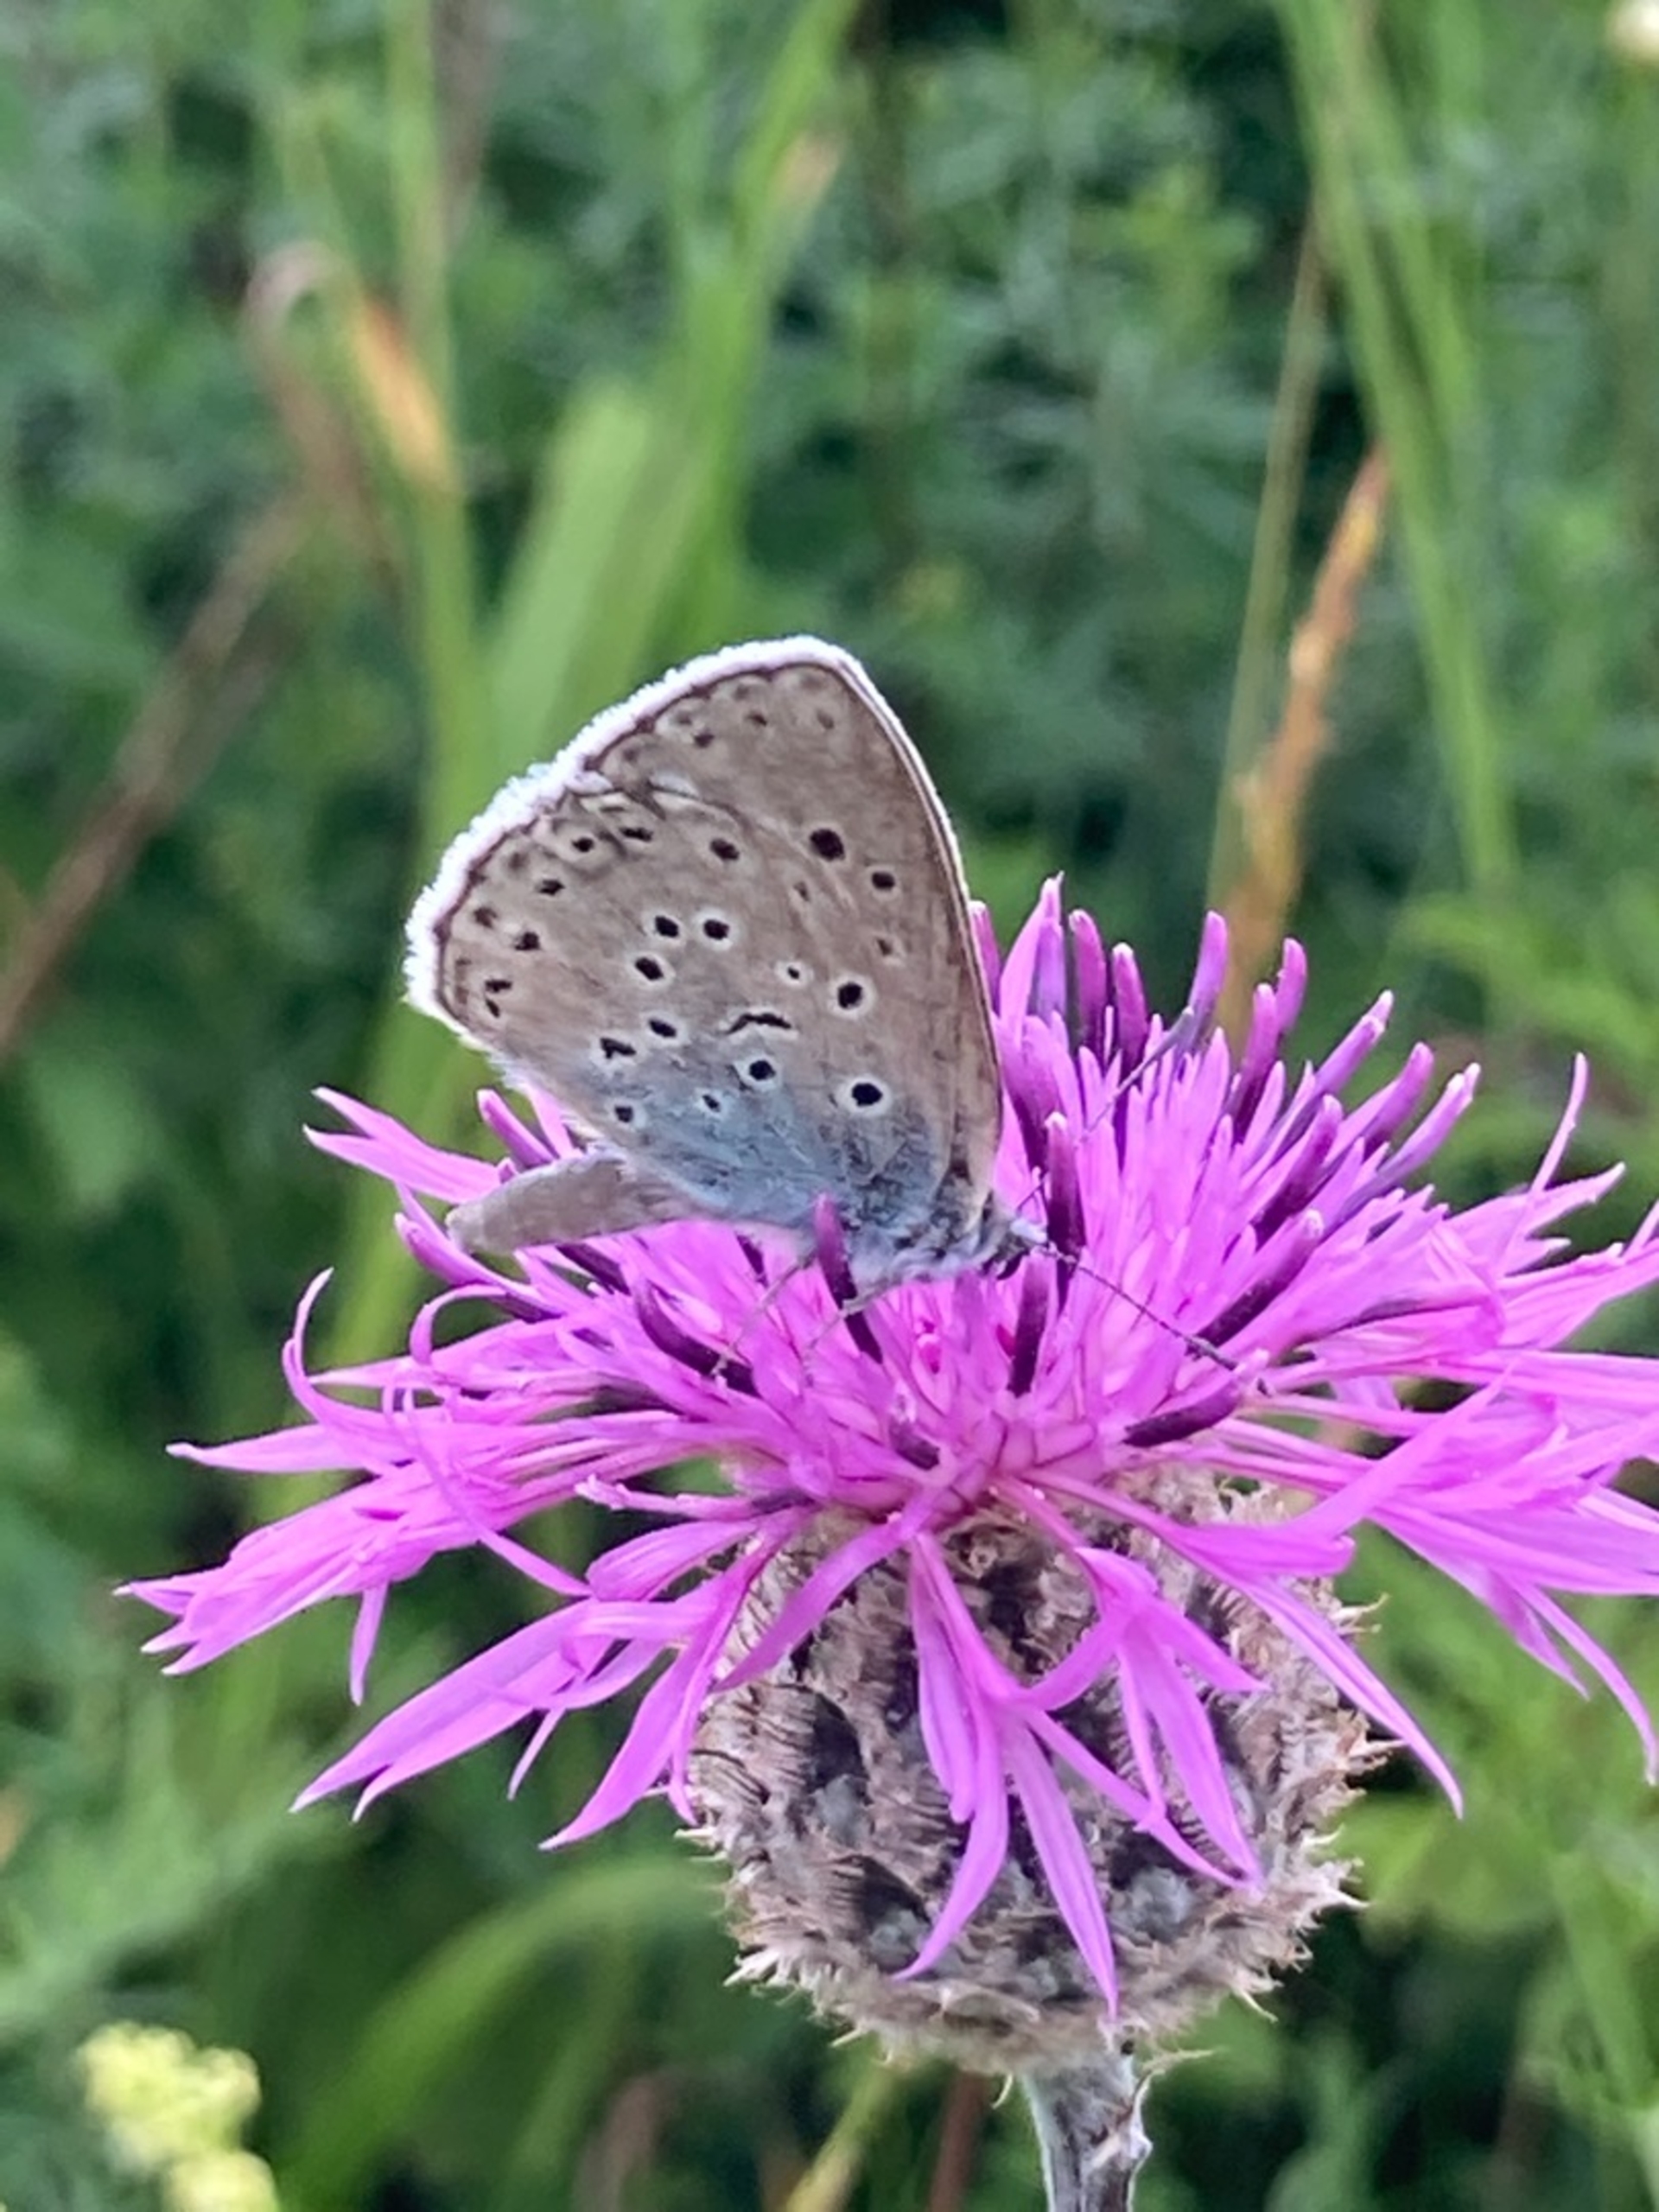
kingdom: Animalia
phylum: Arthropoda
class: Insecta
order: Lepidoptera
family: Lycaenidae
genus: Maculinea
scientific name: Maculinea arion
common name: Sortplettet blåfugl
